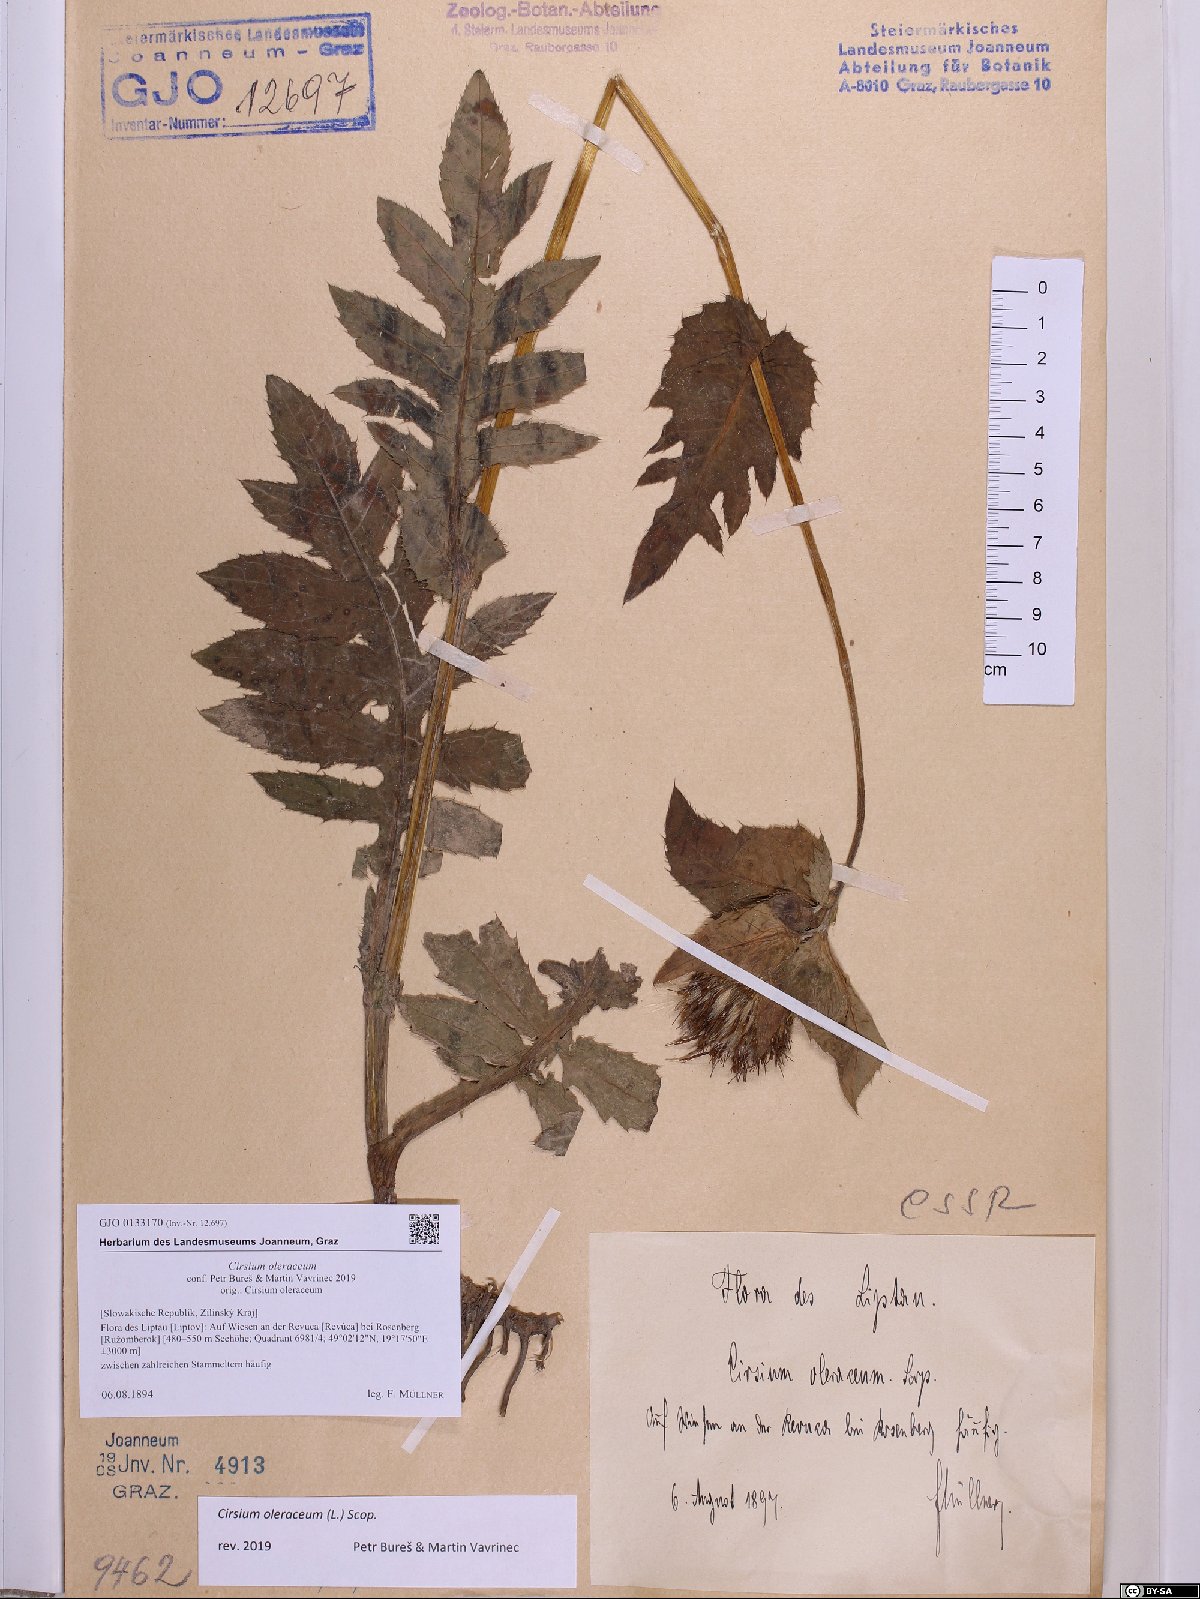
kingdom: Plantae
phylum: Tracheophyta
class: Magnoliopsida
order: Asterales
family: Asteraceae
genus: Cirsium
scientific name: Cirsium oleraceum
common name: Cabbage thistle
